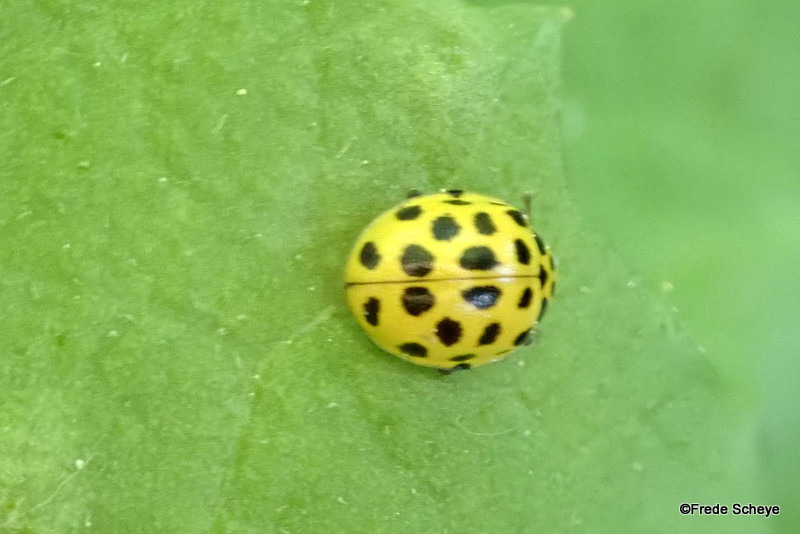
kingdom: Animalia
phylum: Arthropoda
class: Insecta
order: Coleoptera
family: Coccinellidae
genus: Psyllobora
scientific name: Psyllobora vigintiduopunctata
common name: Toogtyveplettet mariehøne
